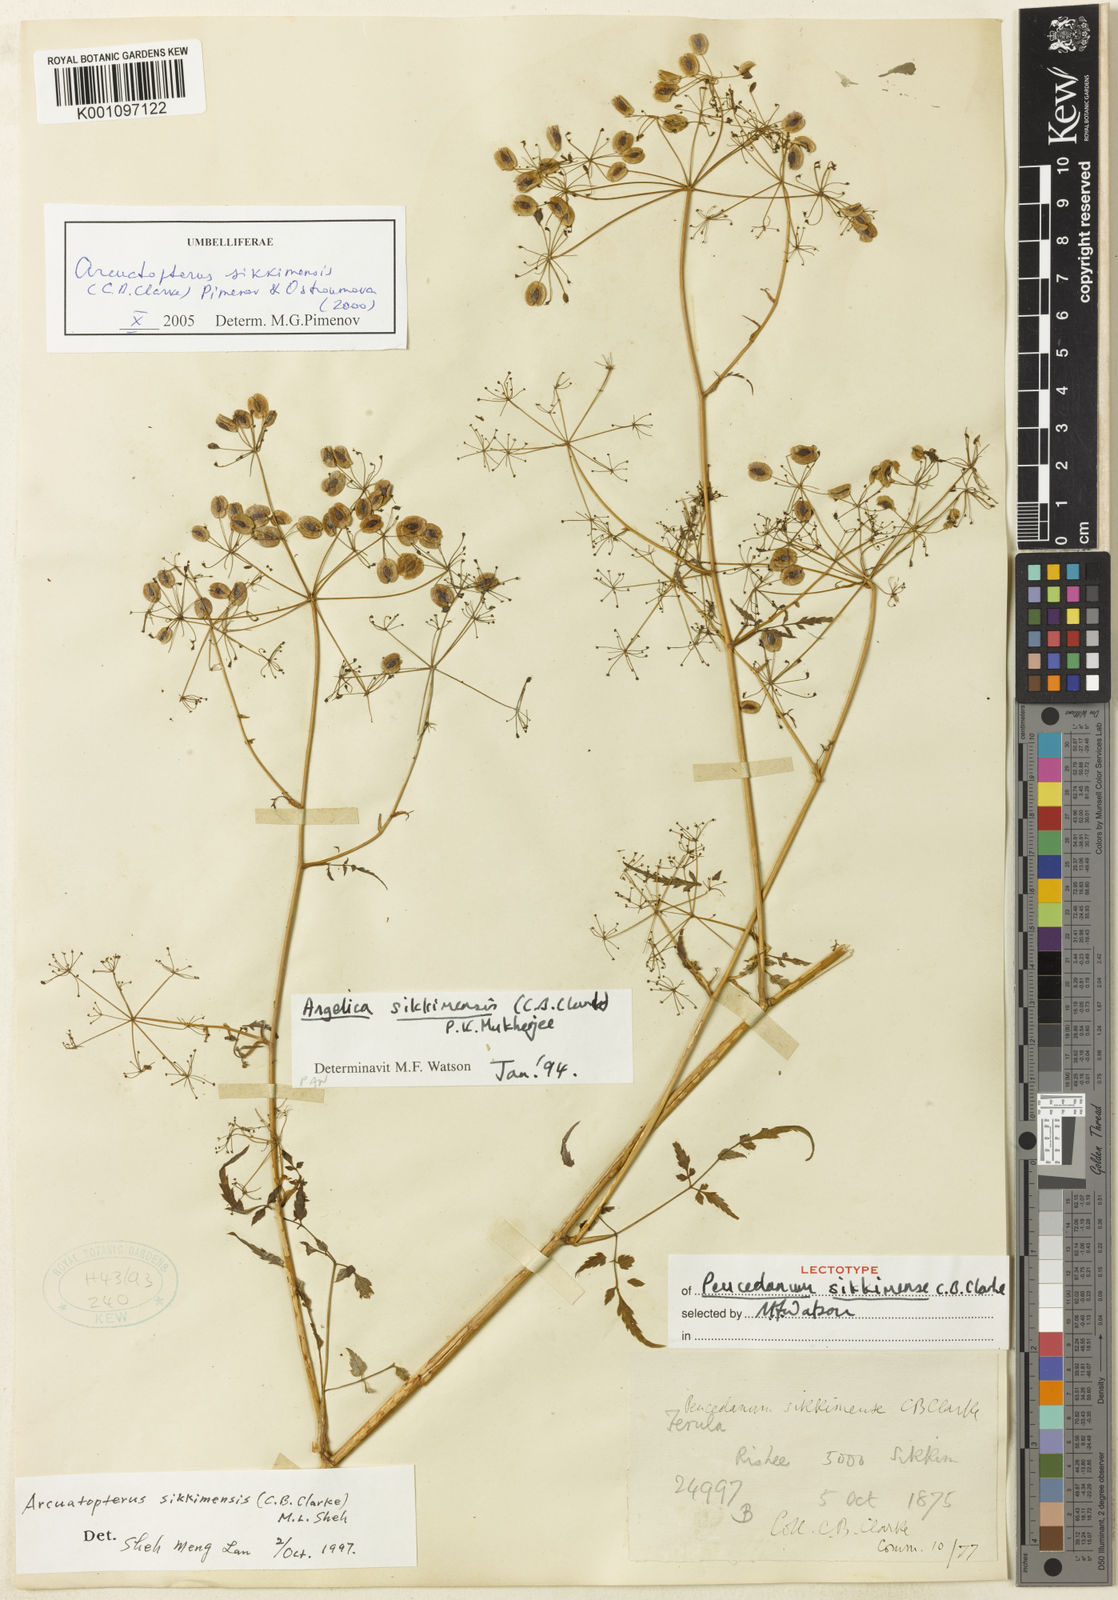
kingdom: Plantae
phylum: Tracheophyta
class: Magnoliopsida
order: Apiales
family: Apiaceae
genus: Arcuatopterus
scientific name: Arcuatopterus sikkimensis
